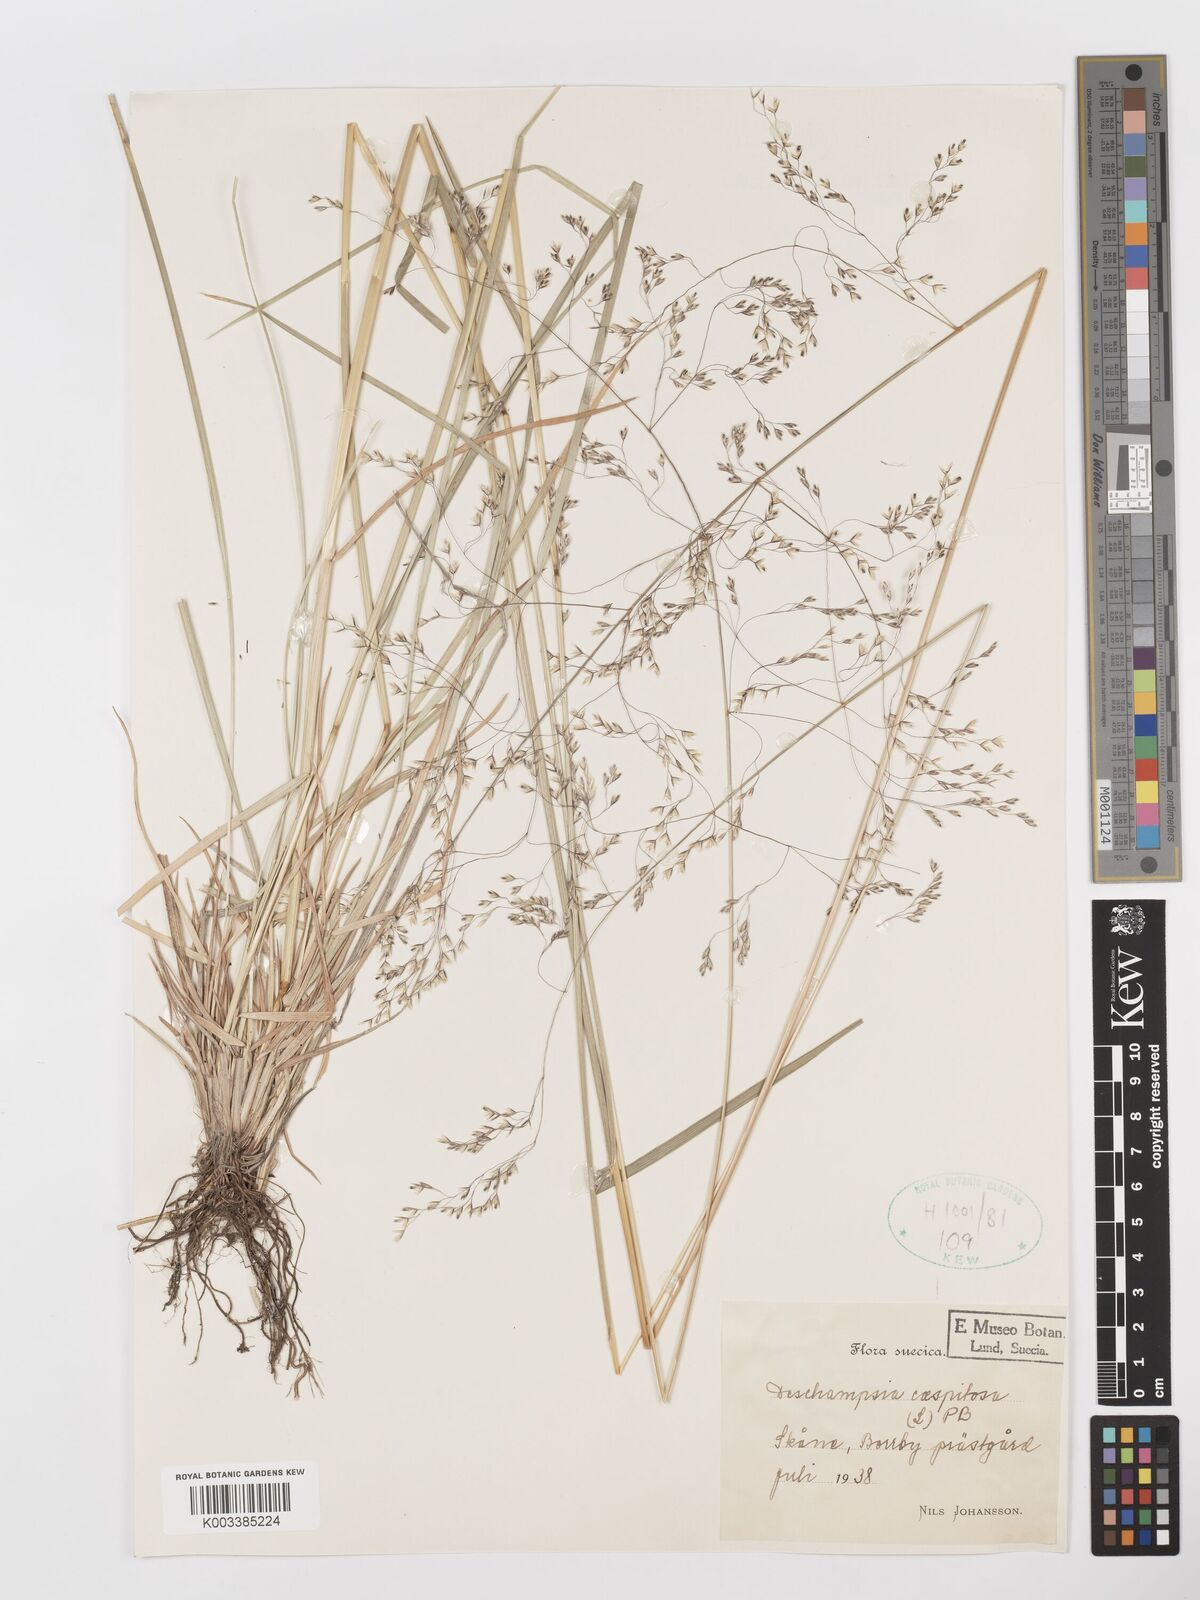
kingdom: Plantae
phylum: Tracheophyta
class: Liliopsida
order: Poales
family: Poaceae
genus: Deschampsia
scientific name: Deschampsia cespitosa
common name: Tufted hair-grass
